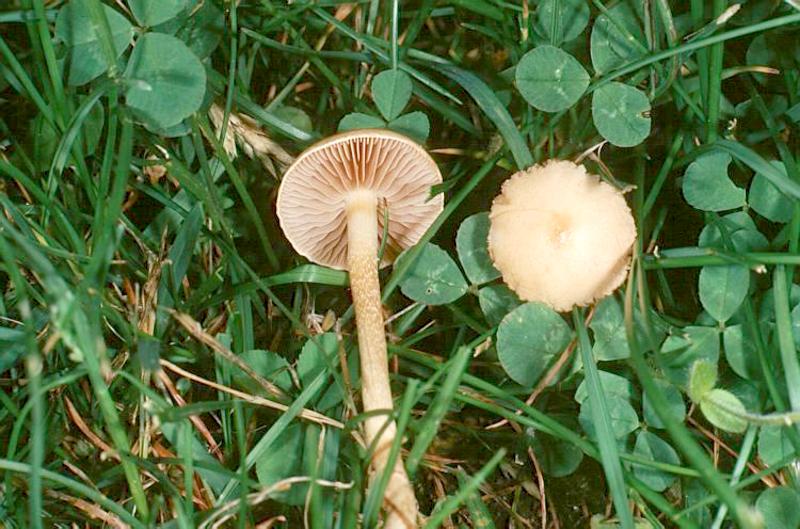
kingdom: Fungi
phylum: Basidiomycota
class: Agaricomycetes
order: Agaricales
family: Strophariaceae
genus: Agrocybe
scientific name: Agrocybe pediades
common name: Common fieldcap
